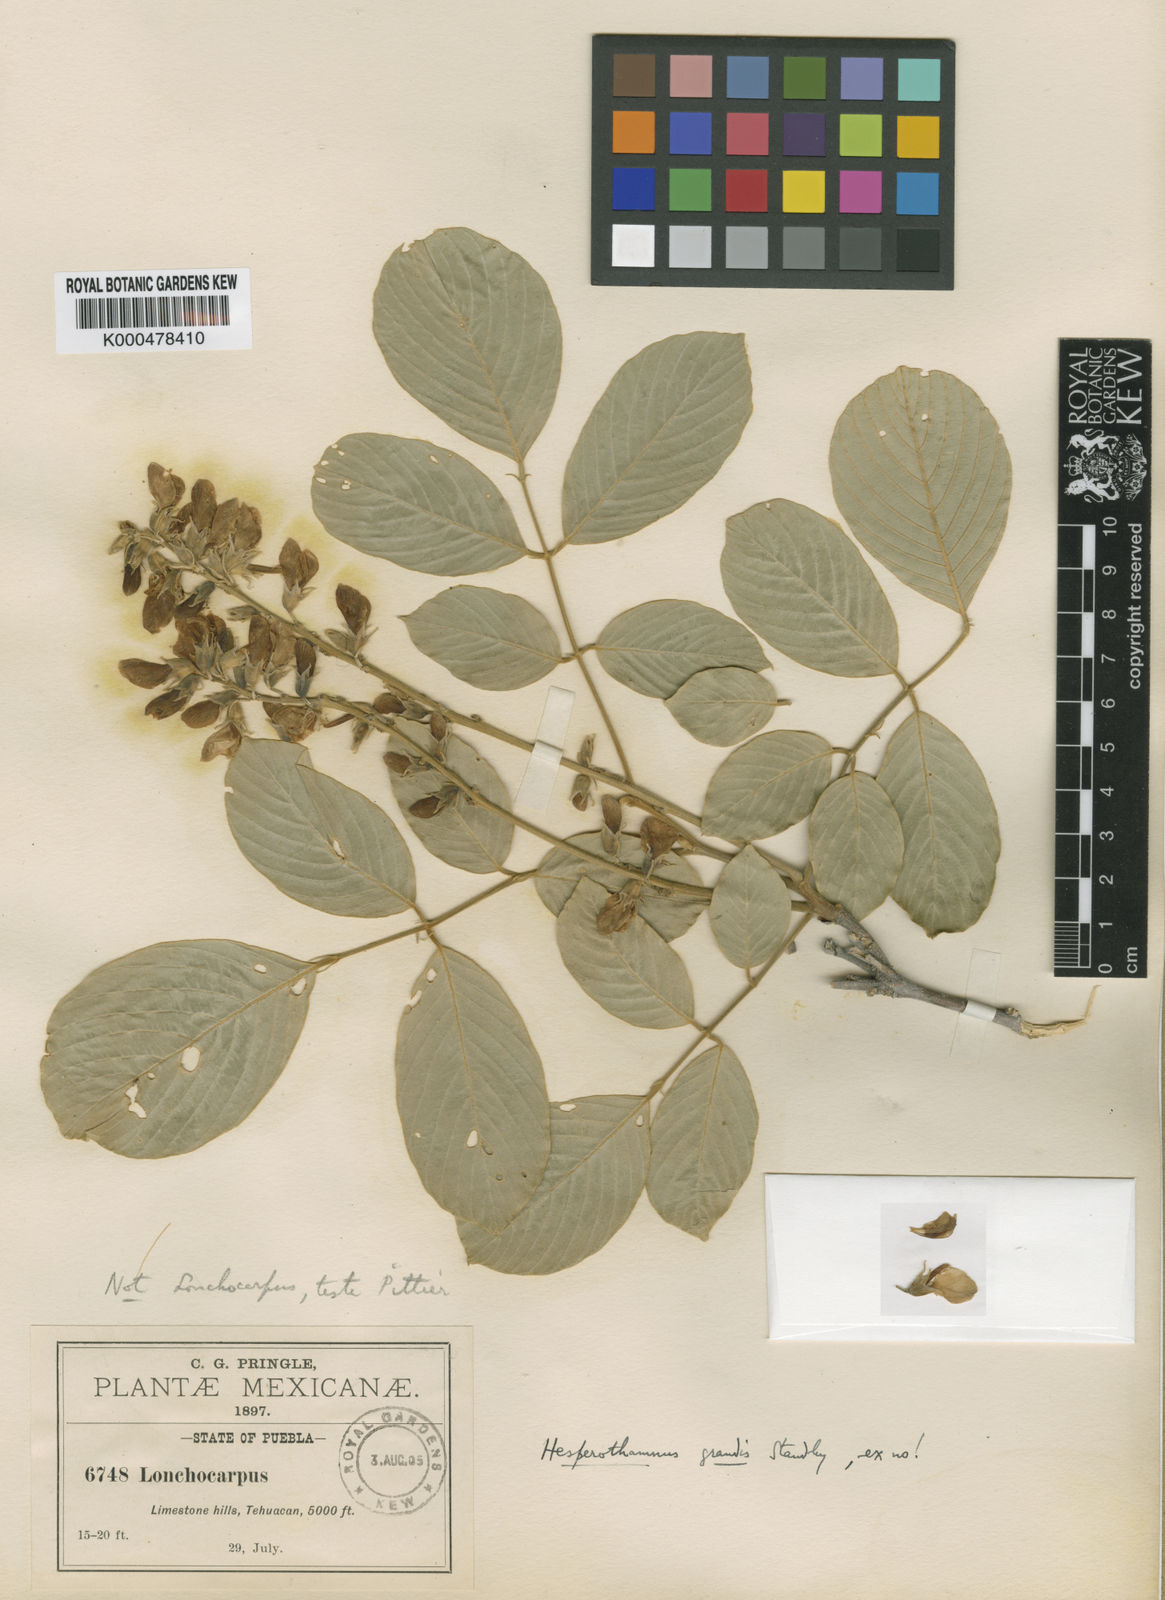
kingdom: Plantae
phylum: Tracheophyta
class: Magnoliopsida
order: Fabales
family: Fabaceae
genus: Hesperothamnus
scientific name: Hesperothamnus purpusii
